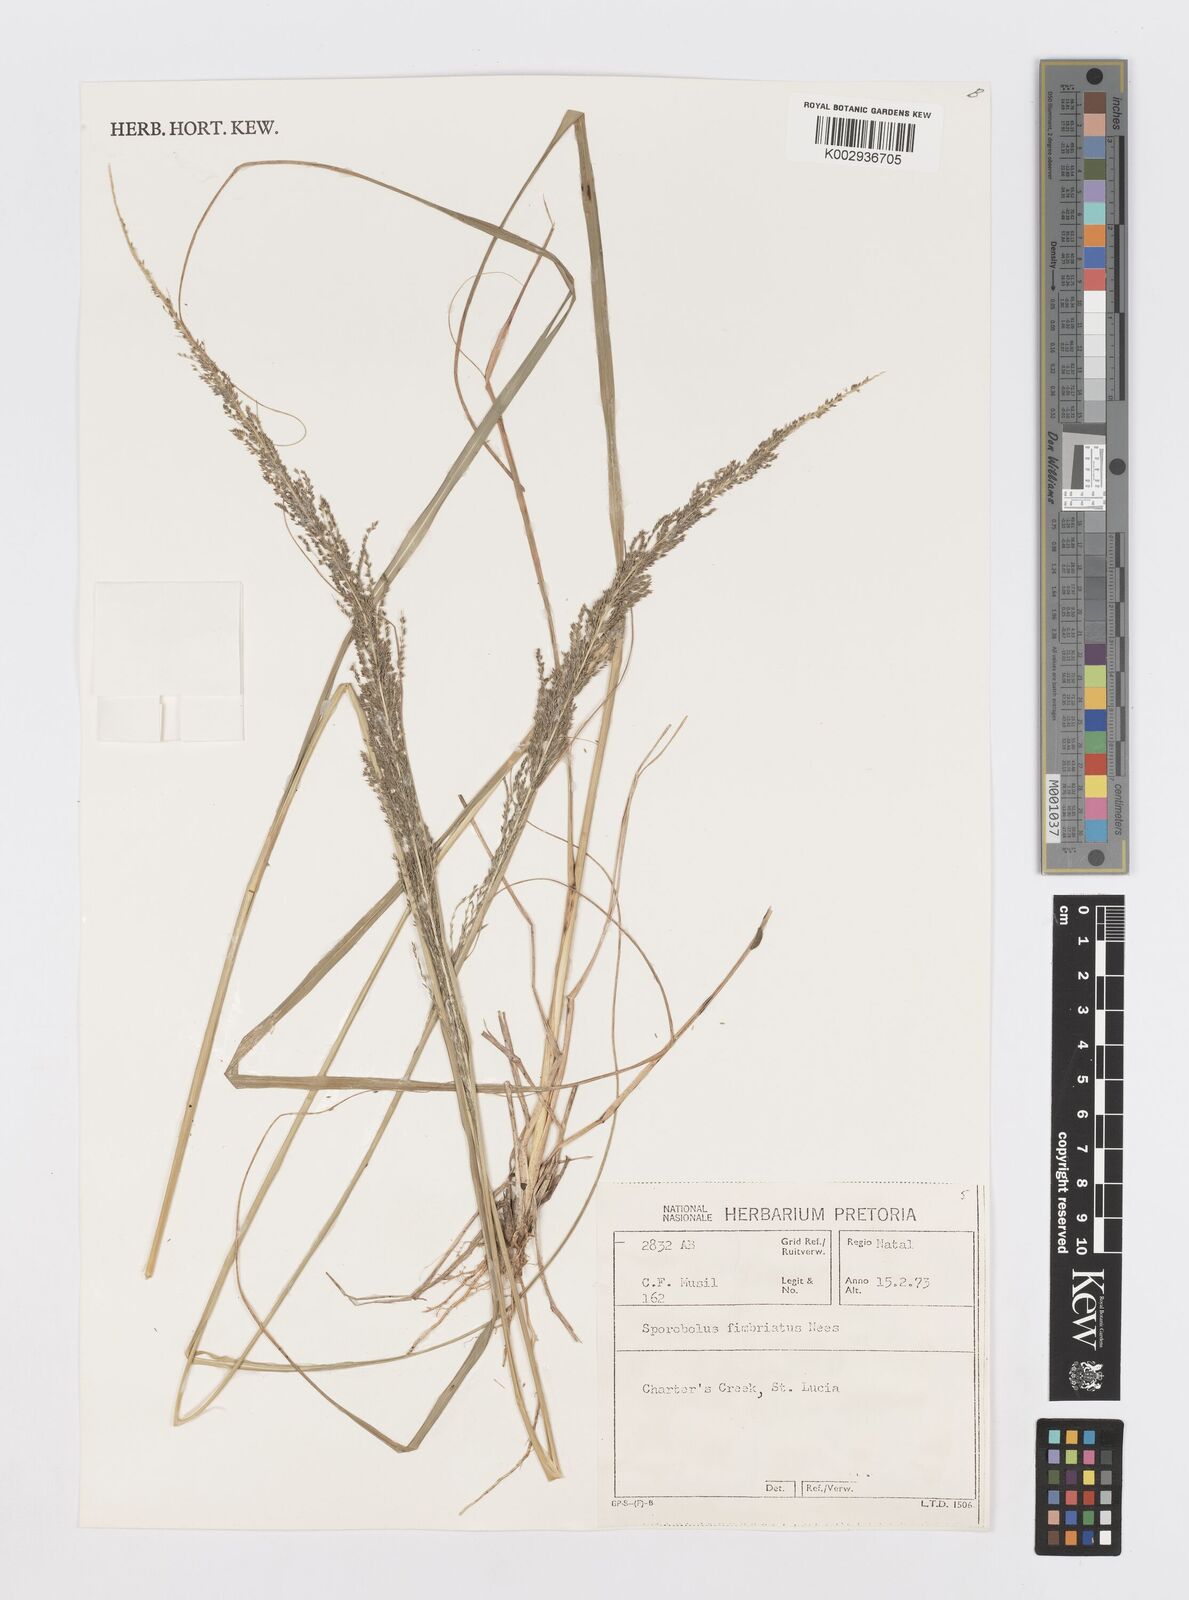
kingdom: Plantae
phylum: Tracheophyta
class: Liliopsida
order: Poales
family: Poaceae
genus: Sporobolus
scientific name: Sporobolus fimbriatus
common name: Fringed dropseed
